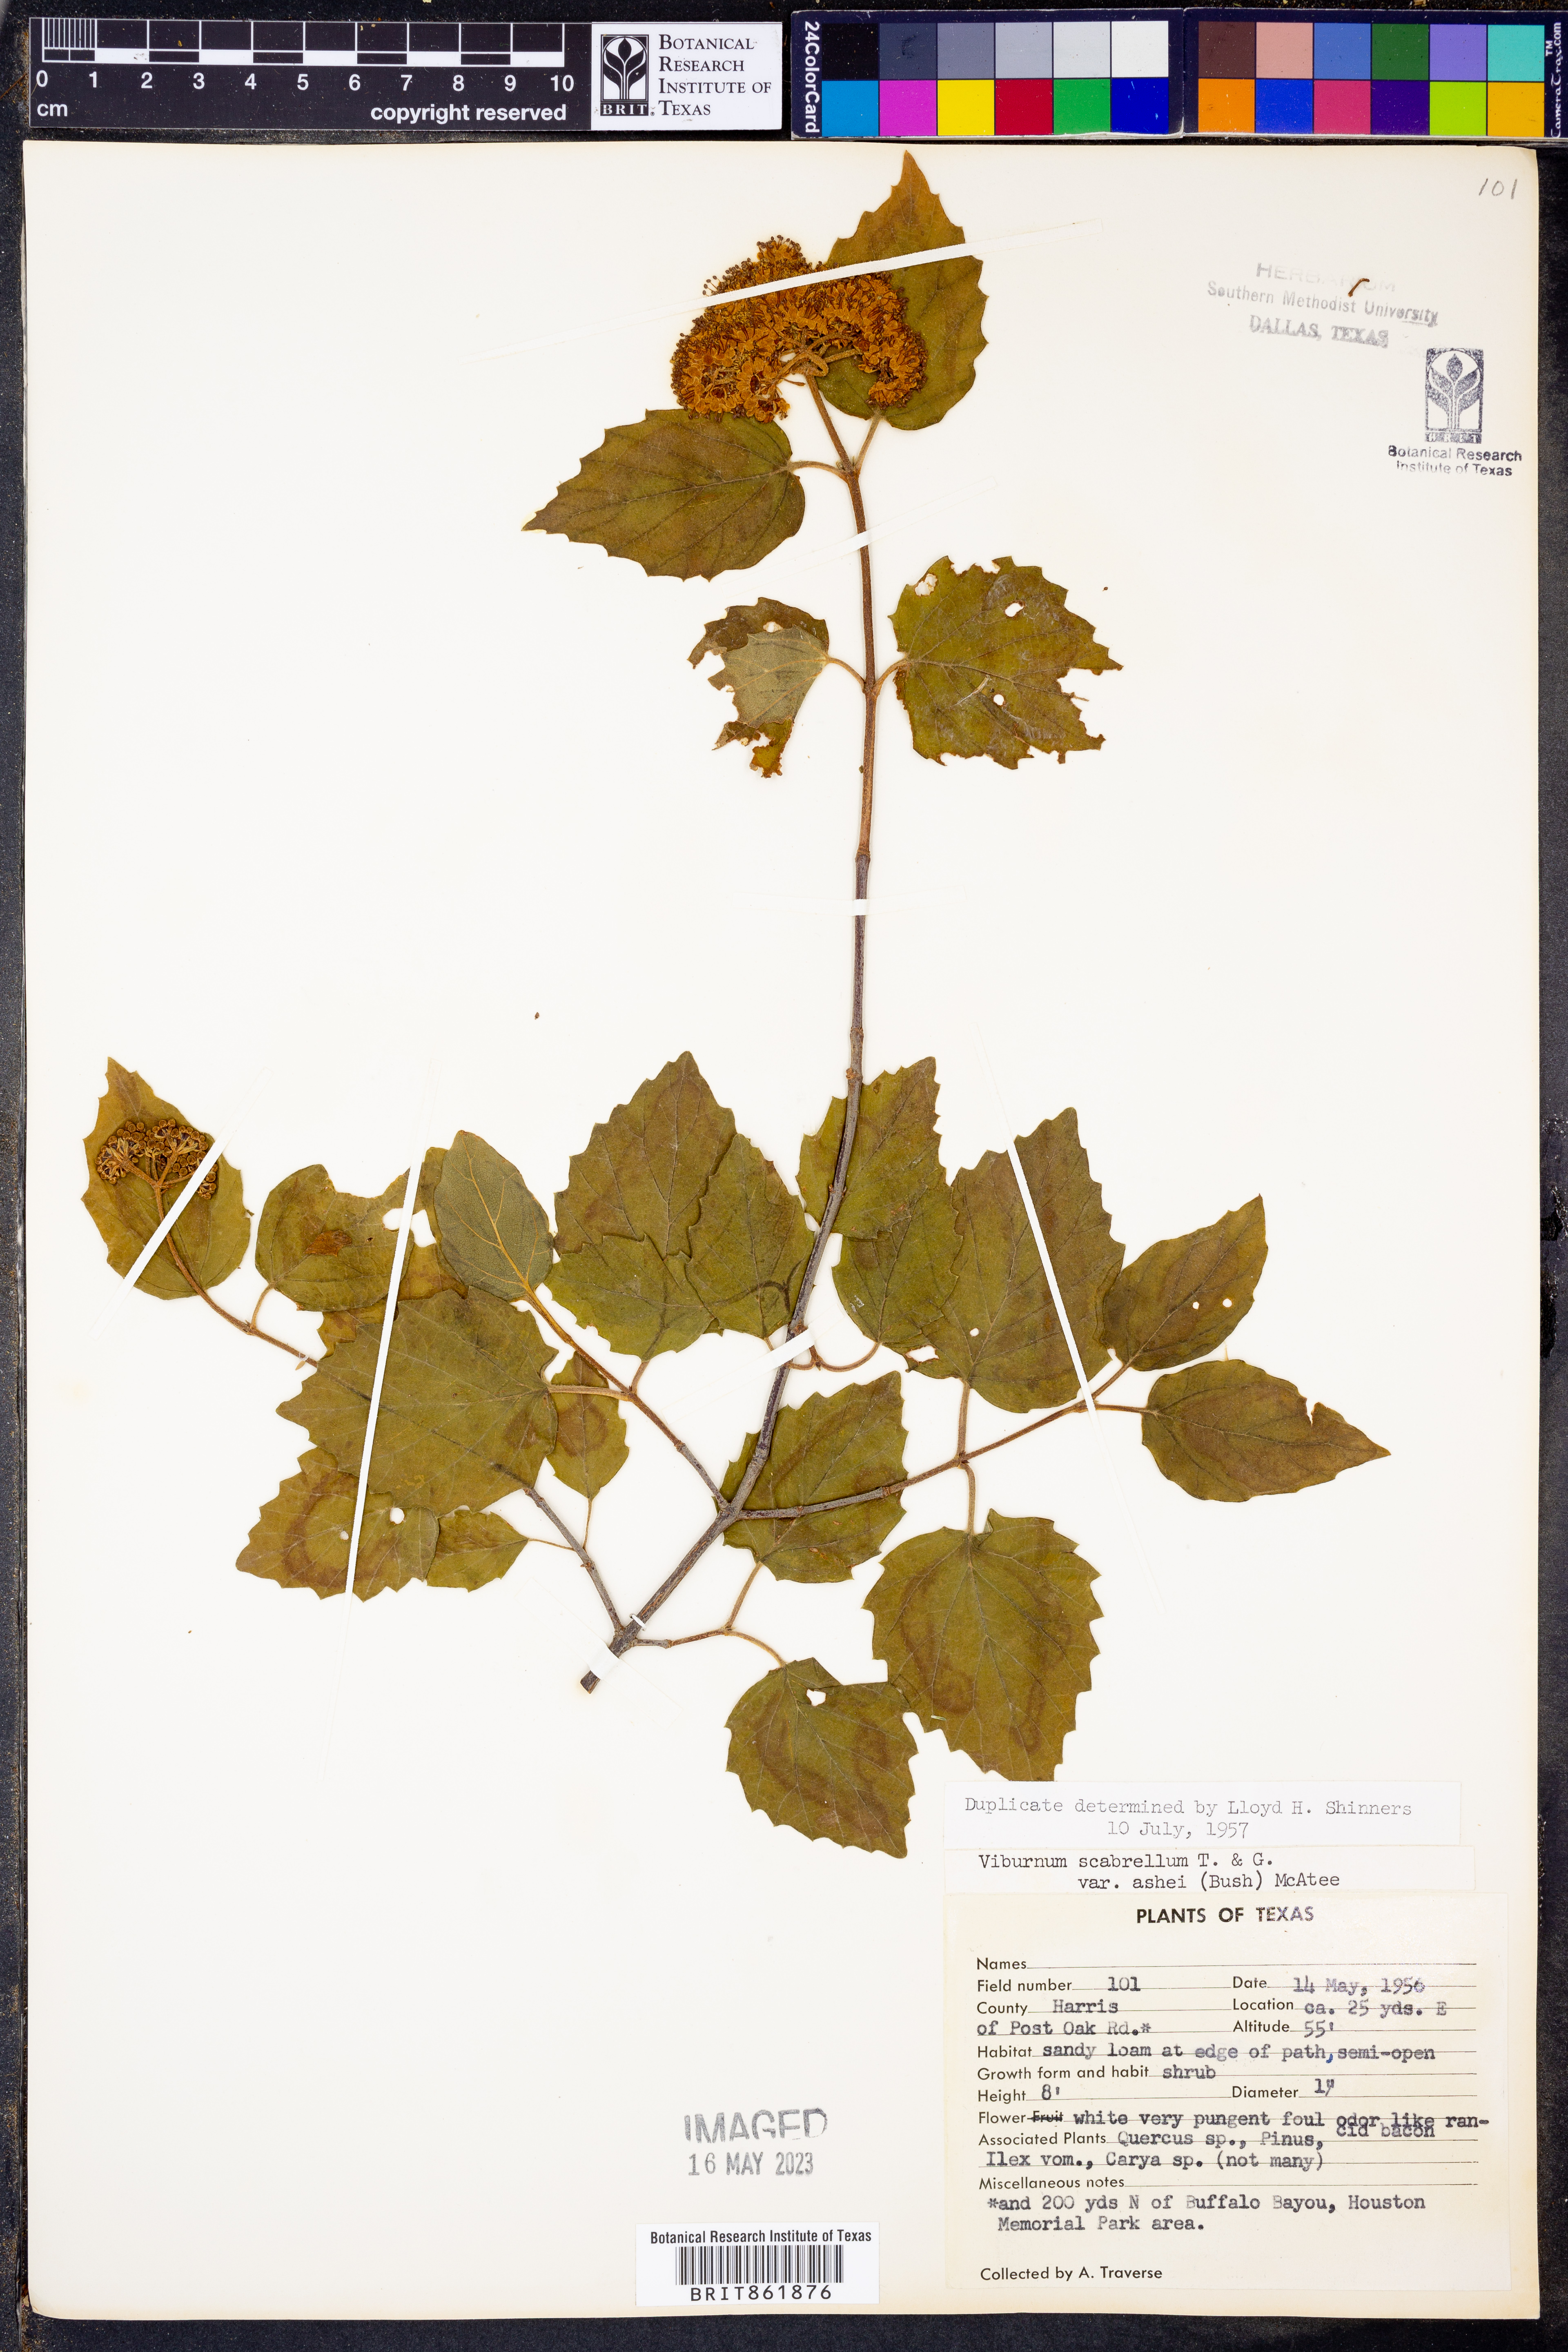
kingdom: Plantae
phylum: Tracheophyta
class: Magnoliopsida
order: Dipsacales
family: Viburnaceae
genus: Viburnum
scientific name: Viburnum scabrellum
